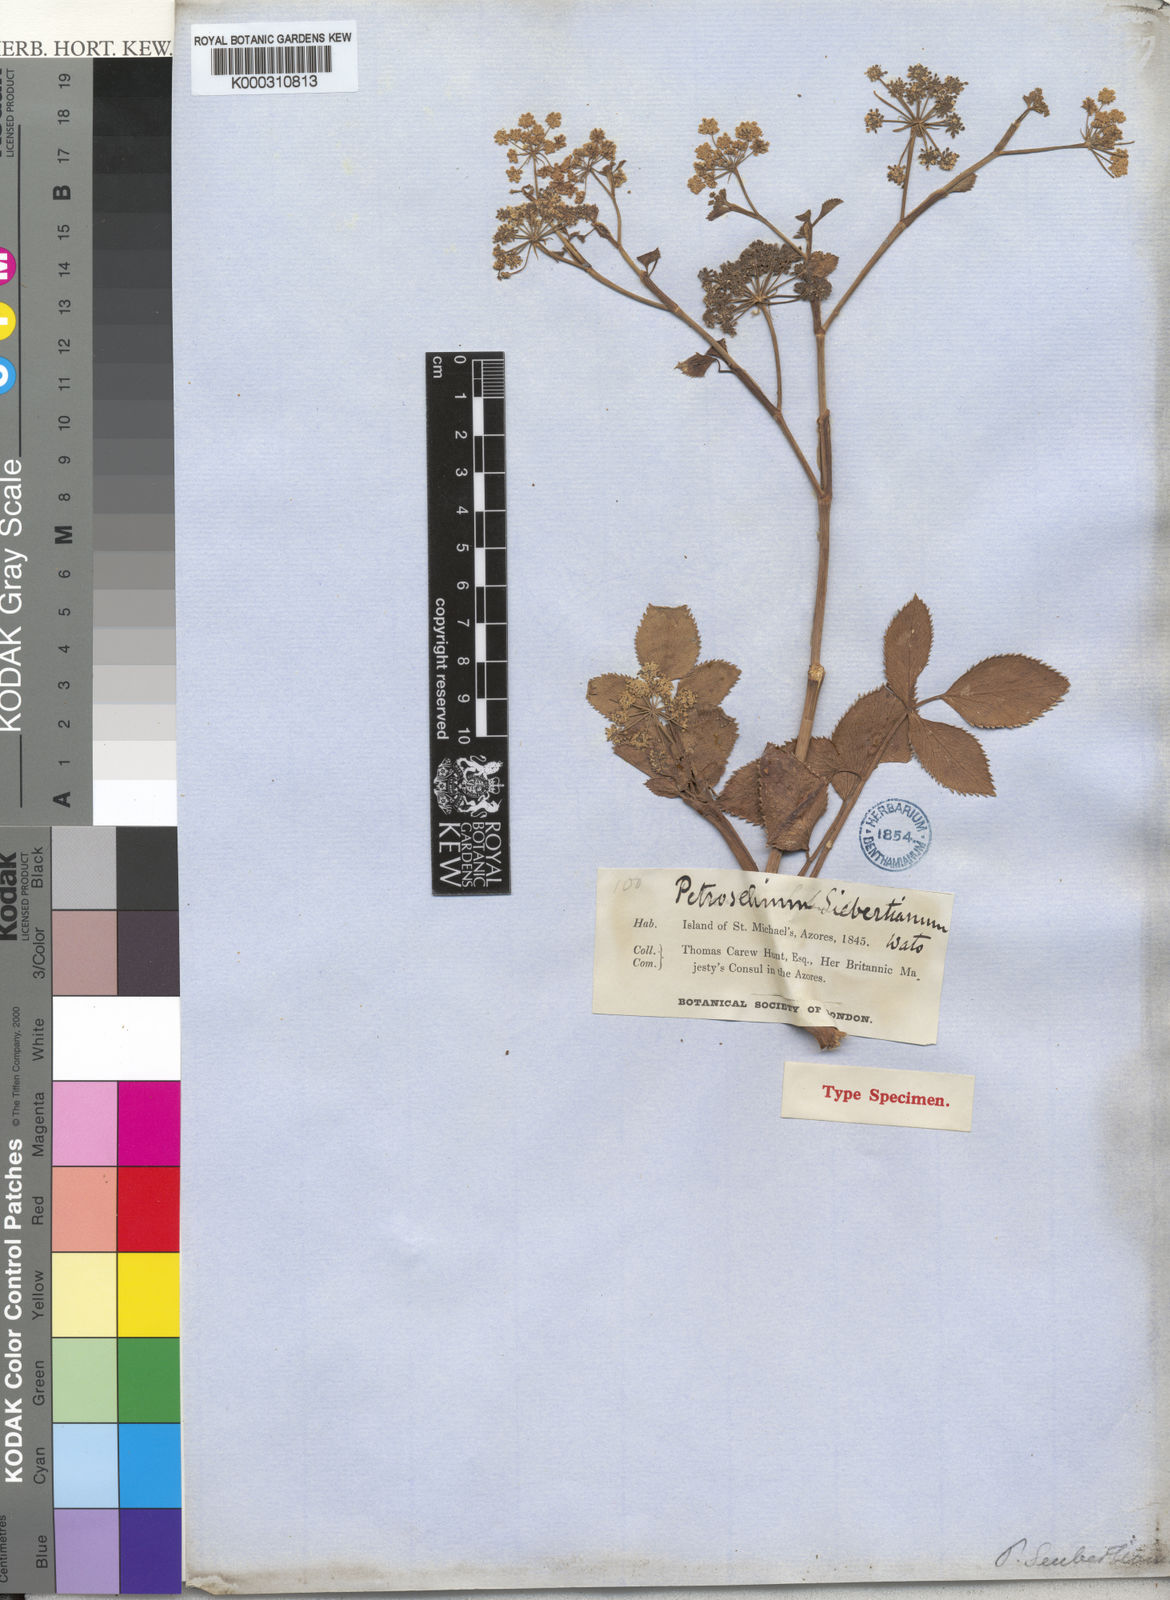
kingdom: Plantae
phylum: Tracheophyta
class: Magnoliopsida
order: Apiales
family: Apiaceae
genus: Ammi
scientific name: Ammi seubertianum
